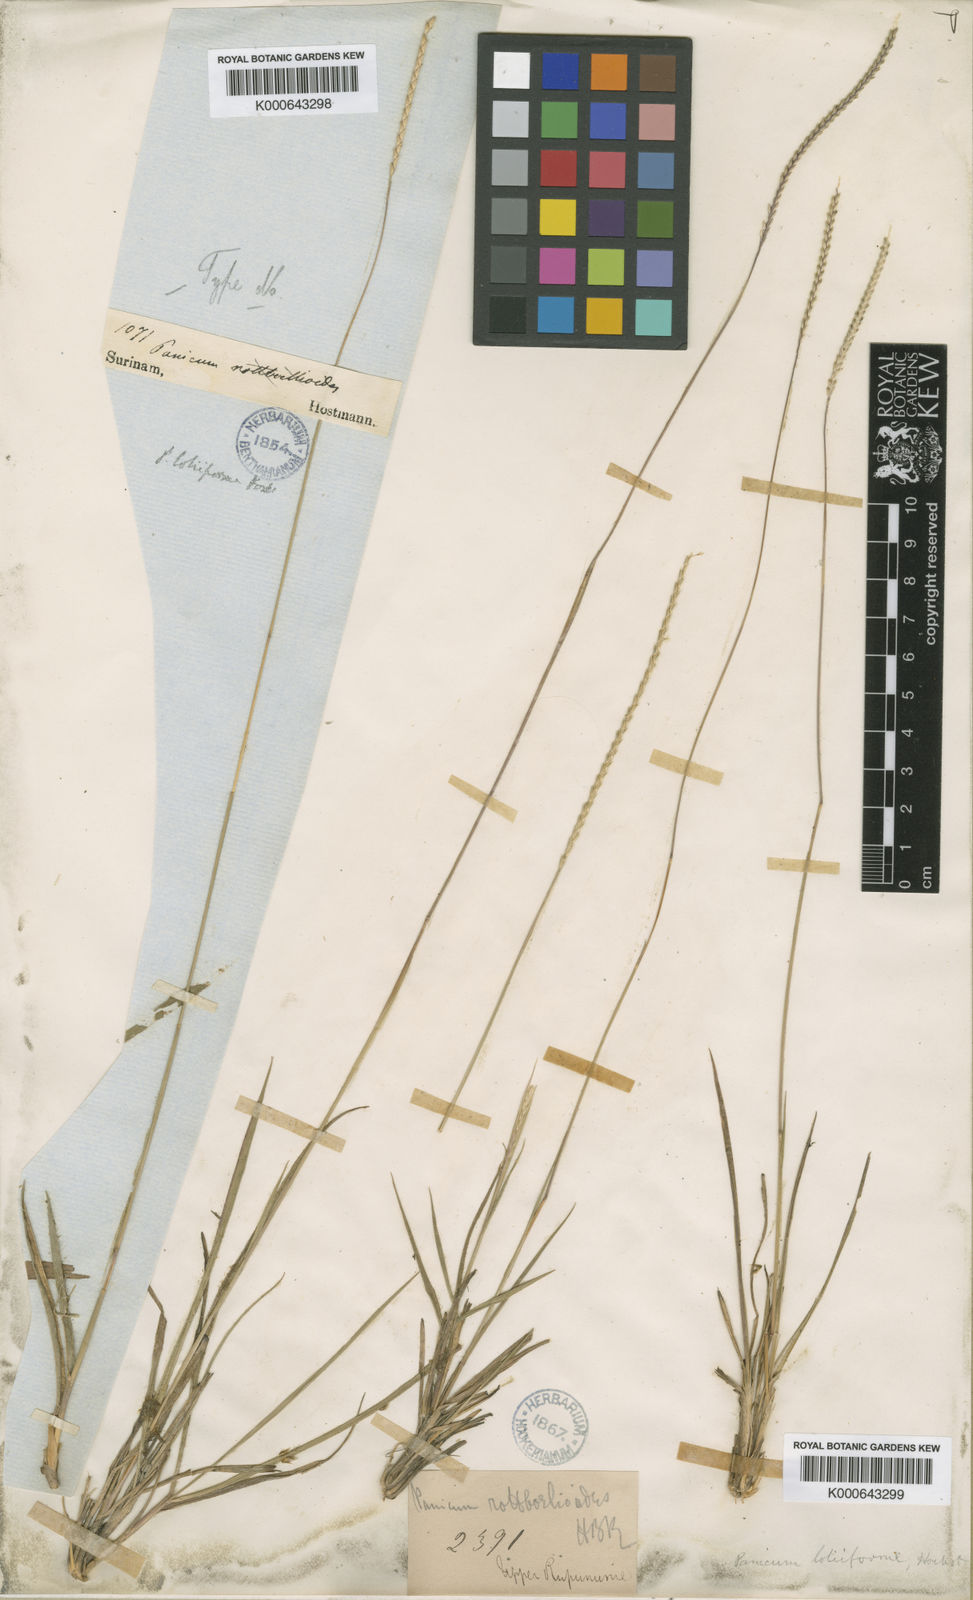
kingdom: Plantae
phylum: Tracheophyta
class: Liliopsida
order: Poales
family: Poaceae
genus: Mesosetum
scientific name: Mesosetum
